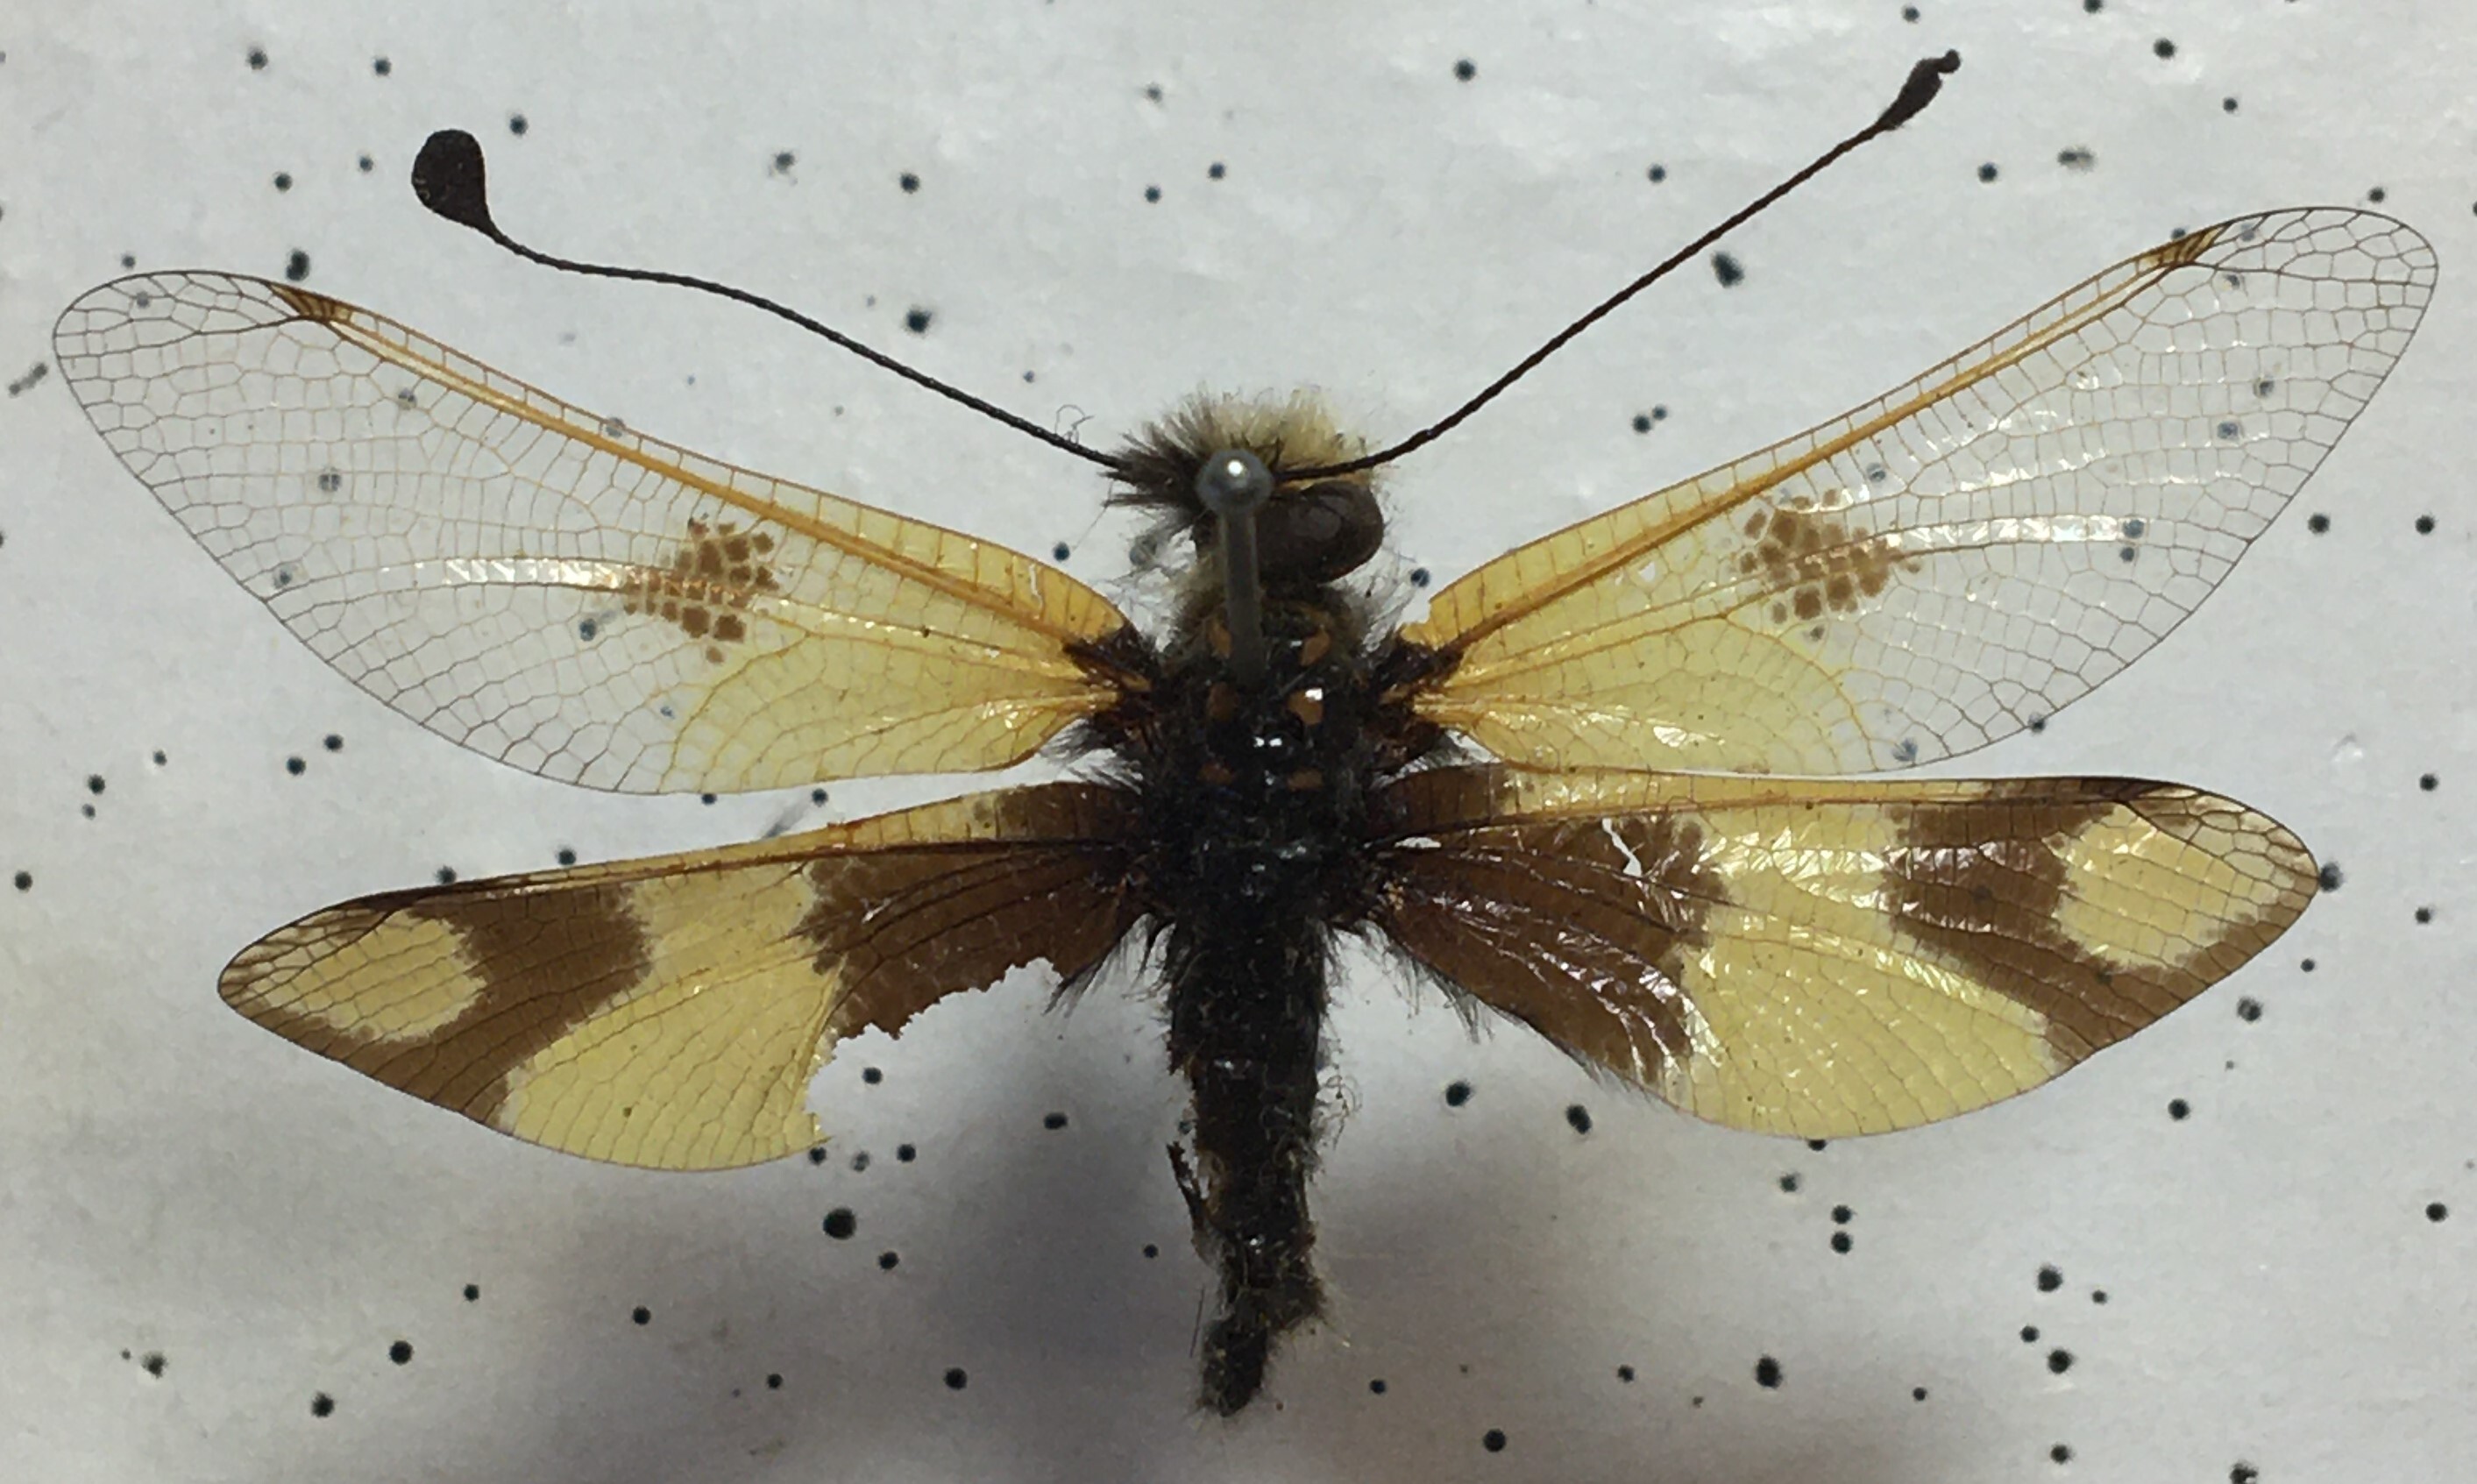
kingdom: Animalia
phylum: Arthropoda
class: Insecta
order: Neuroptera
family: Ascalaphidae
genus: Libelloides
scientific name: Libelloides macaronius
